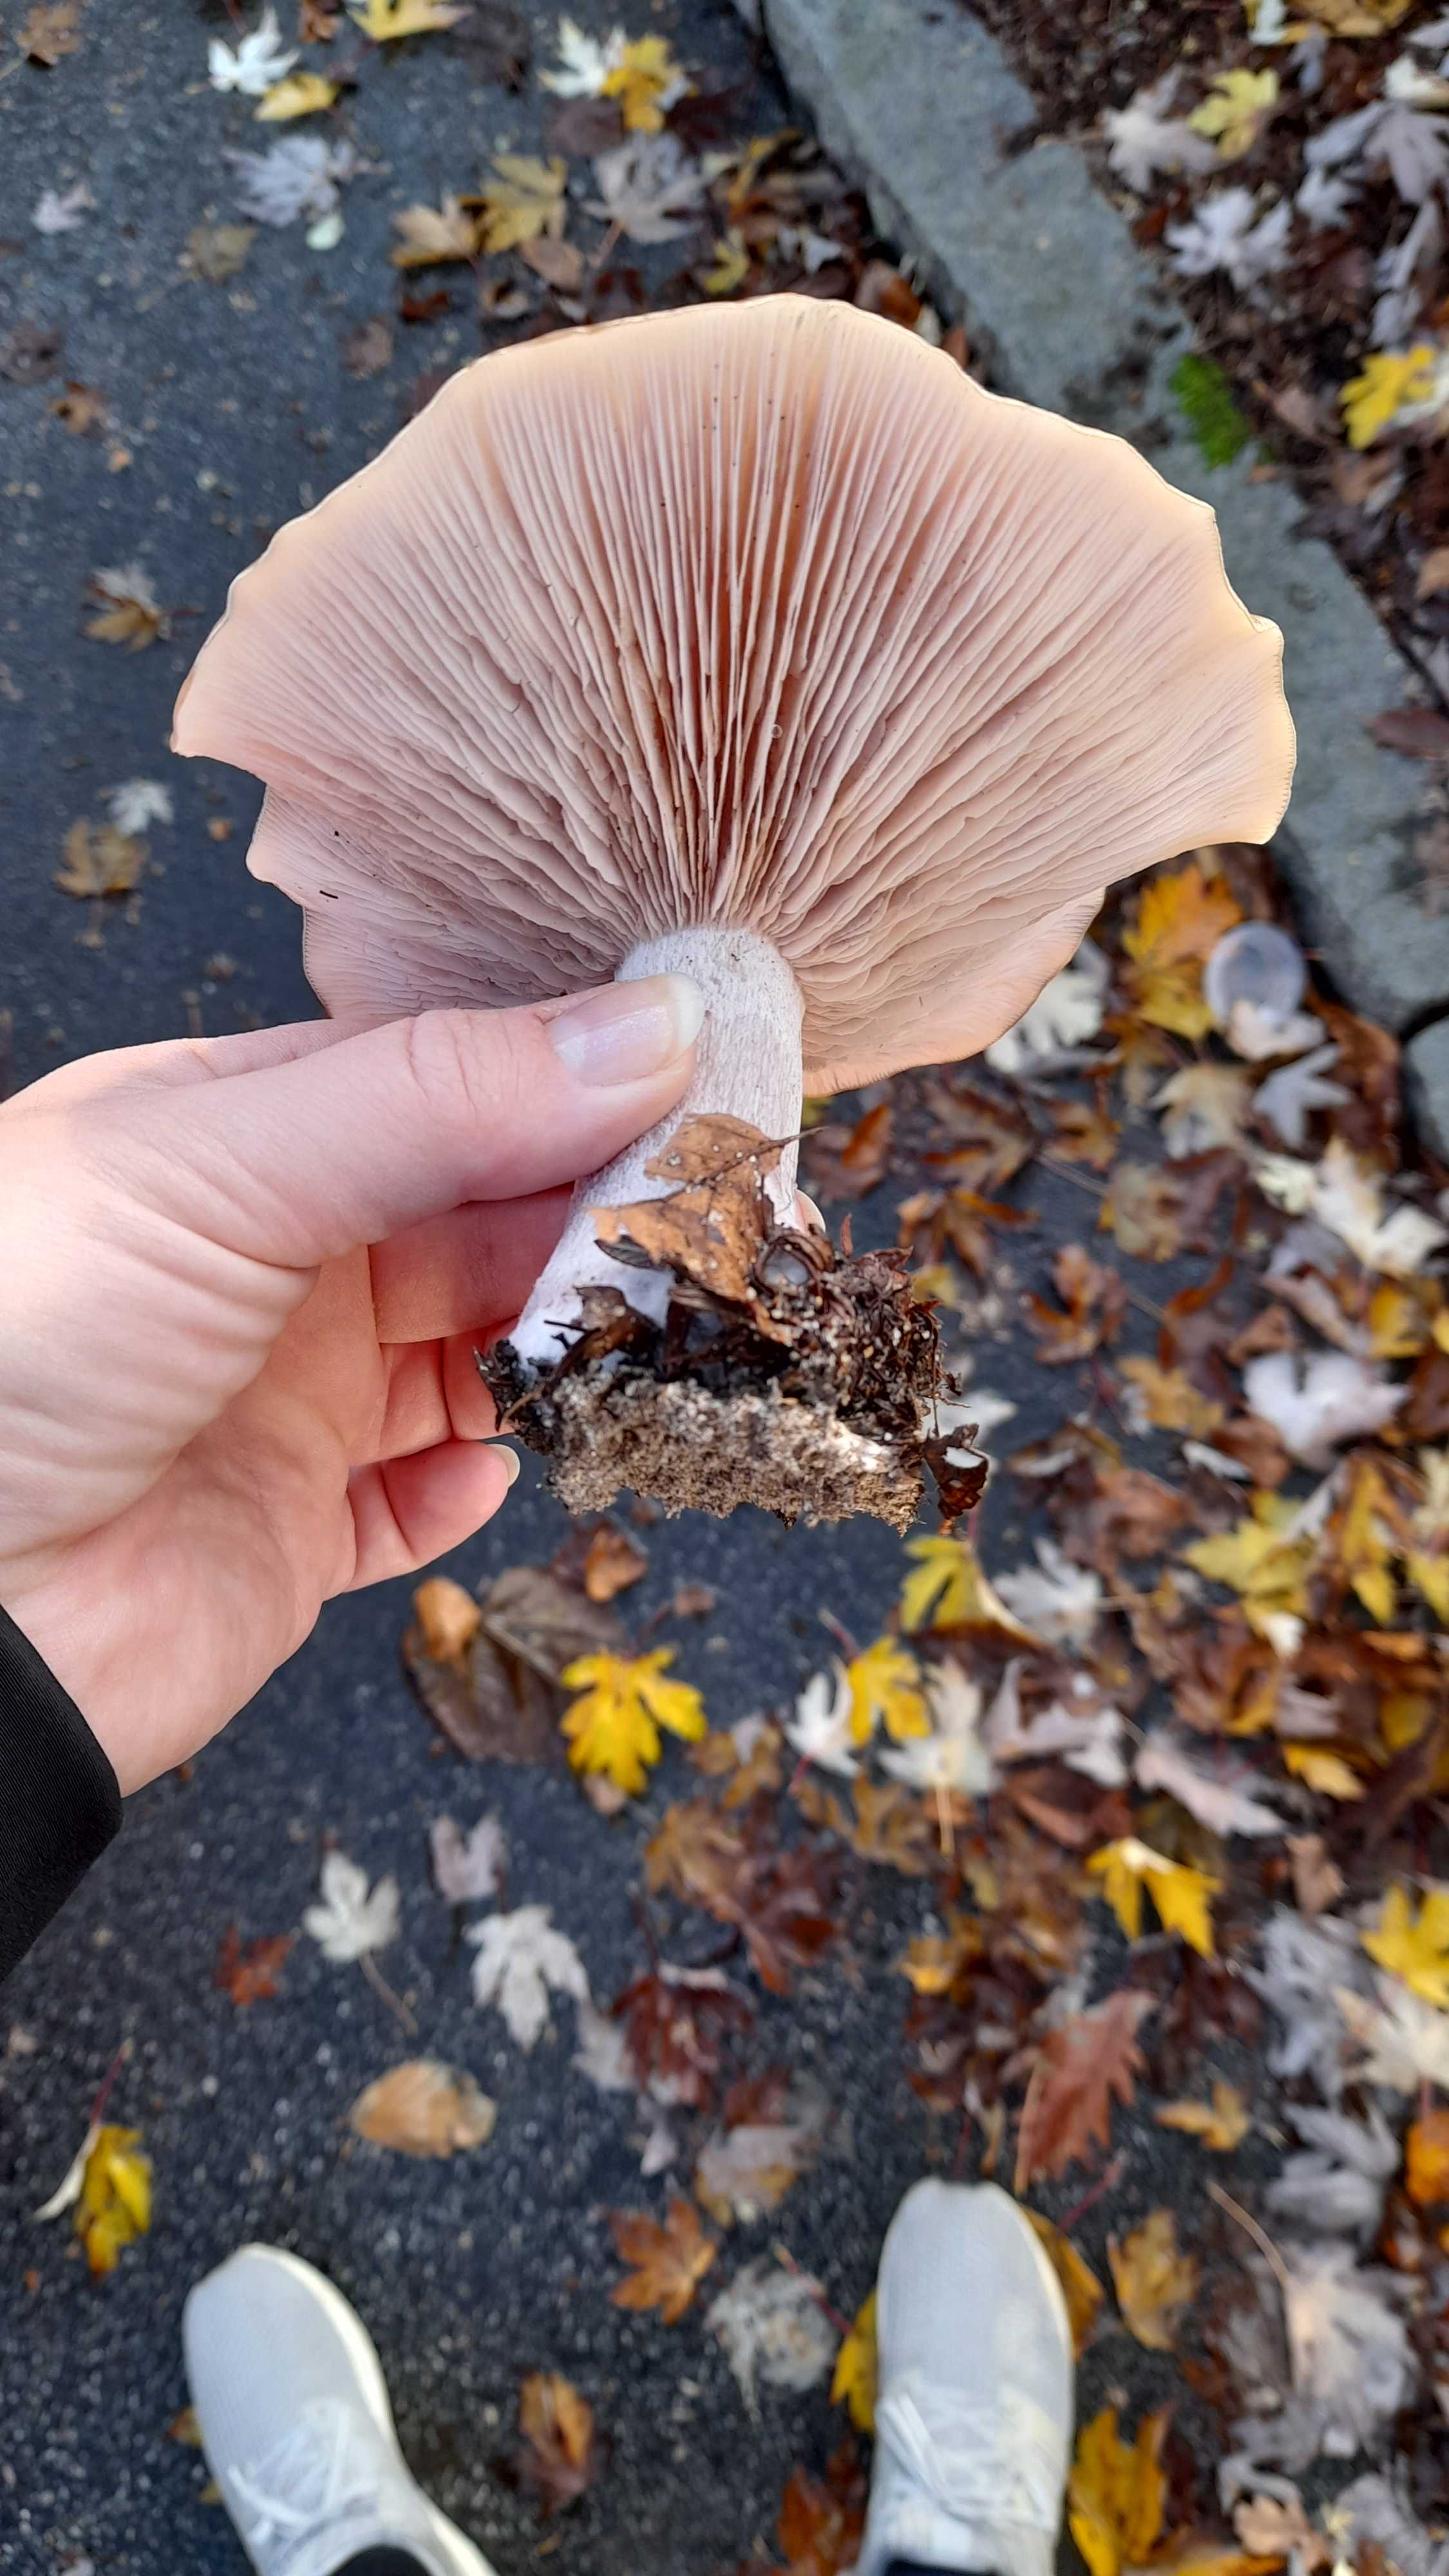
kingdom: Fungi
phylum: Basidiomycota
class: Agaricomycetes
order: Agaricales
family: Tricholomataceae
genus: Lepista
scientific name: Lepista nuda
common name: violet hekseringshat
